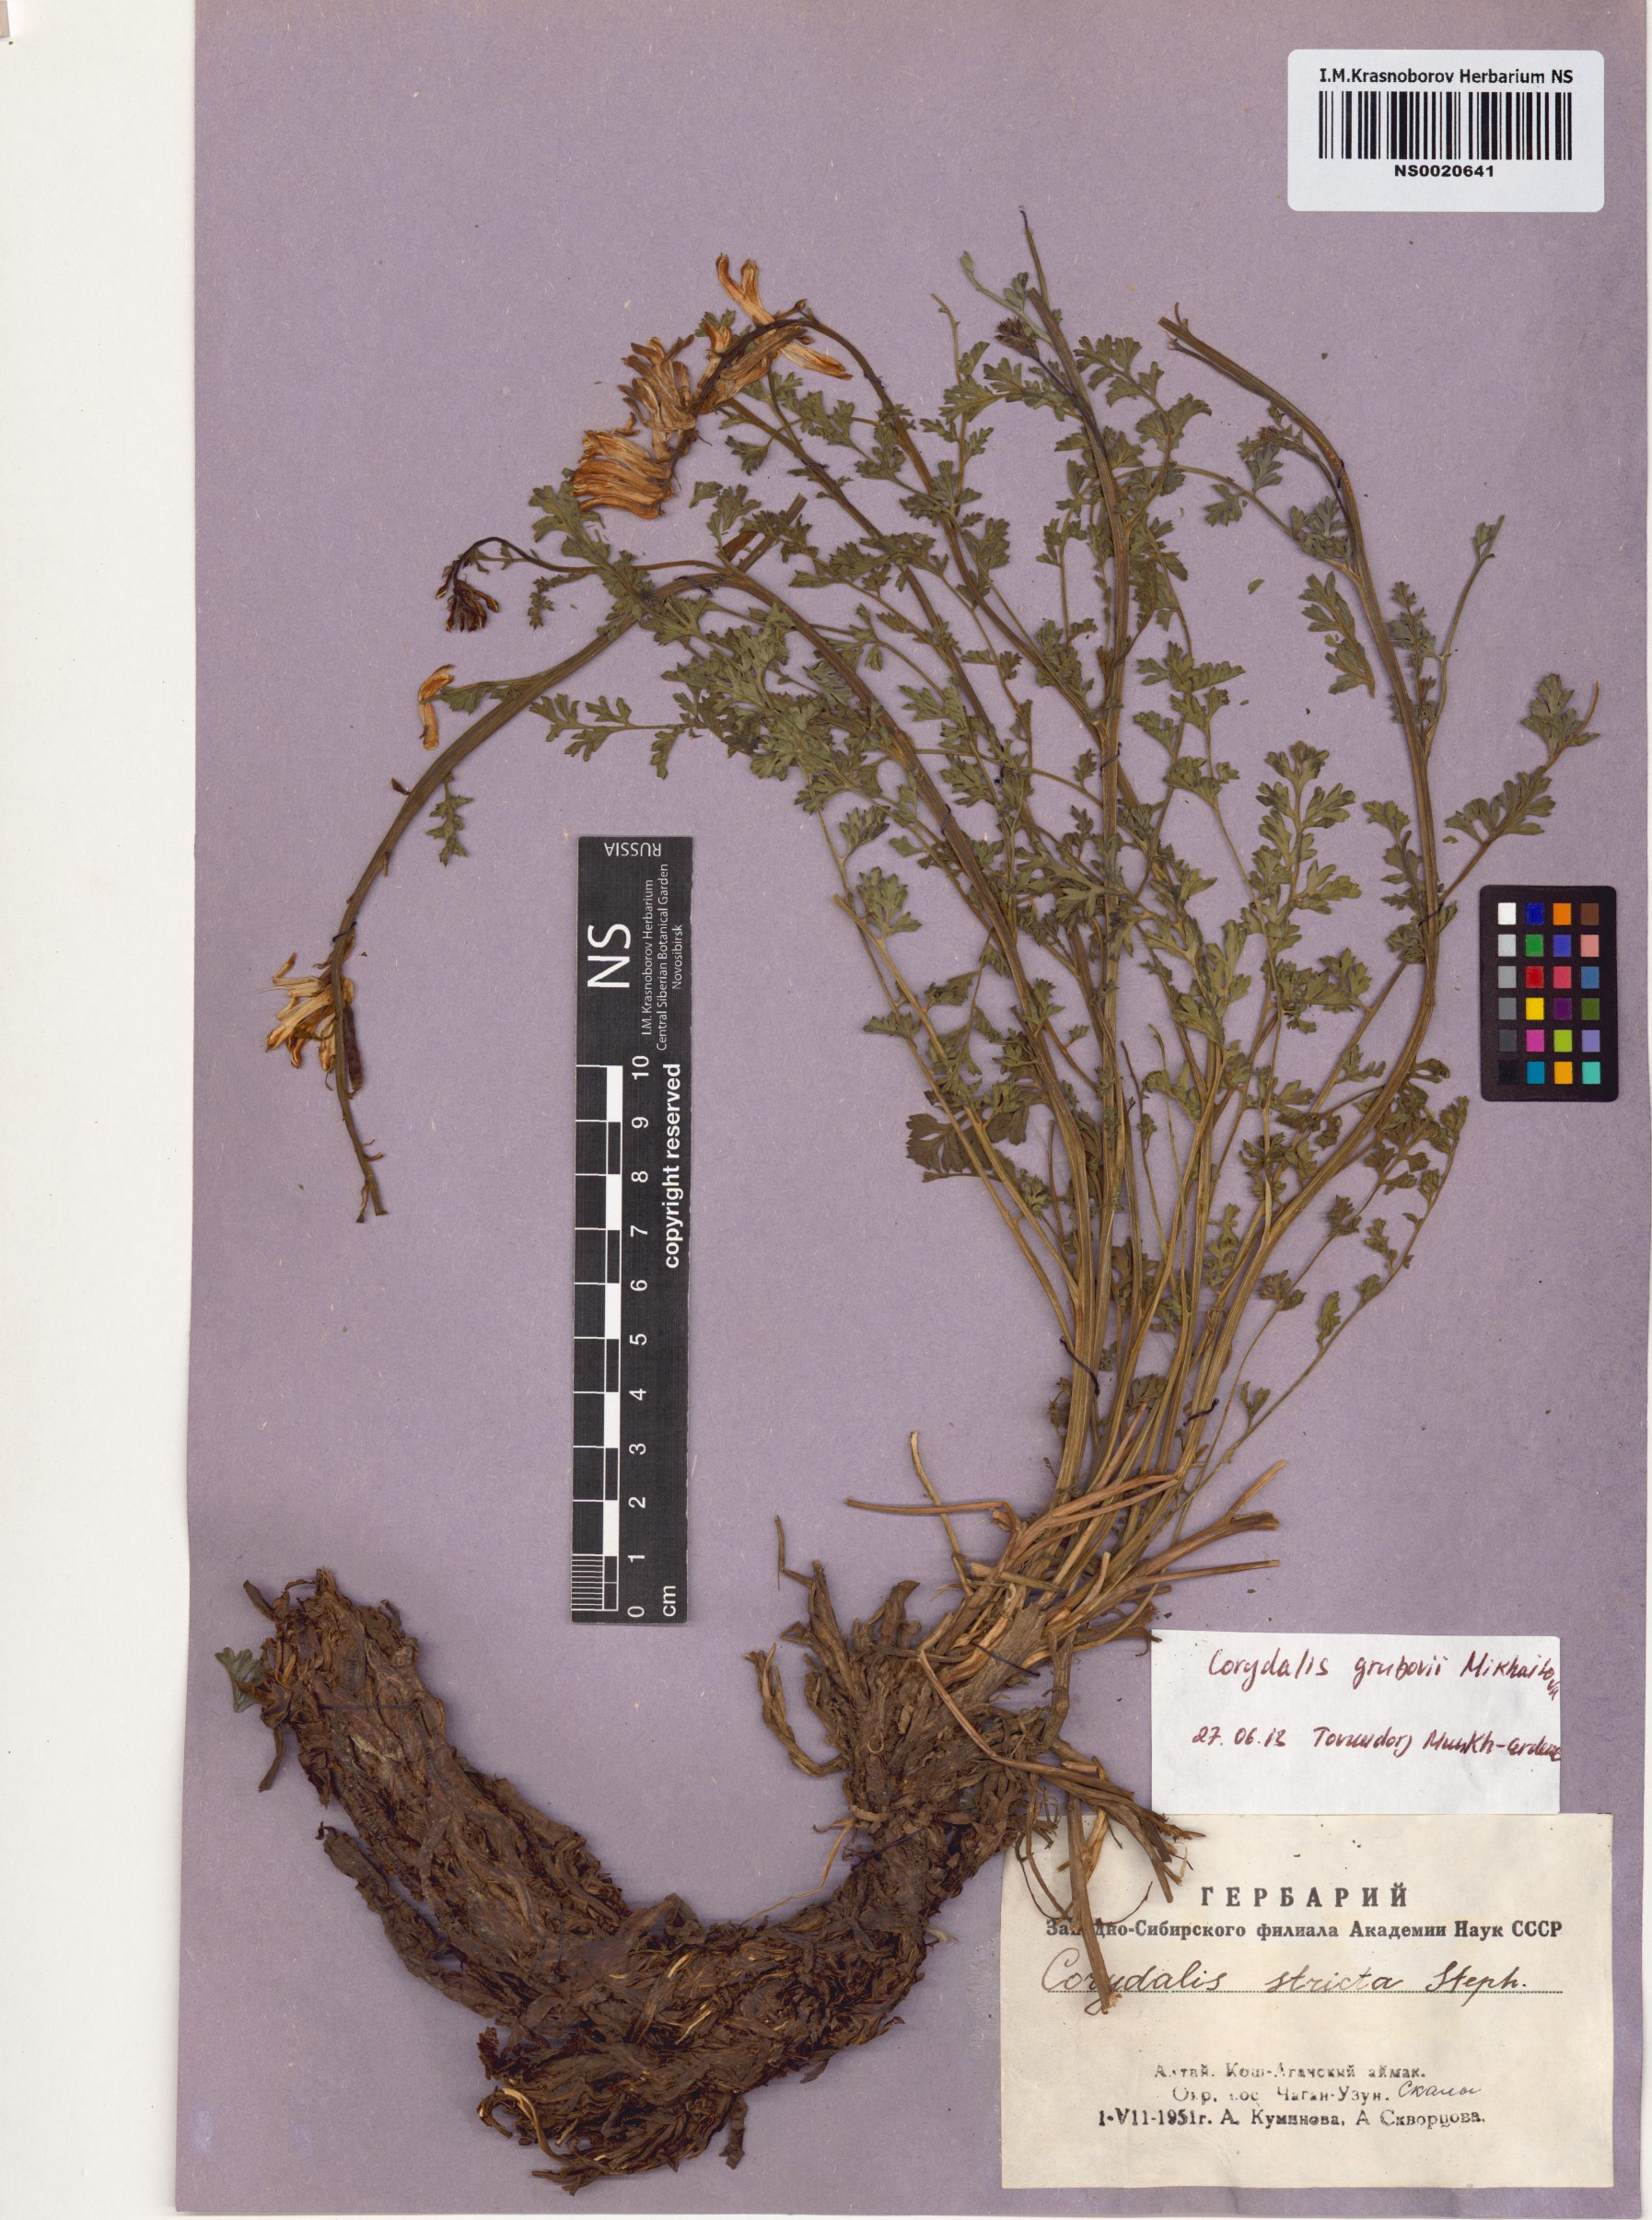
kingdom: Plantae
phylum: Tracheophyta
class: Magnoliopsida
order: Ranunculales
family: Papaveraceae
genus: Corydalis
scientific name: Corydalis stricta
